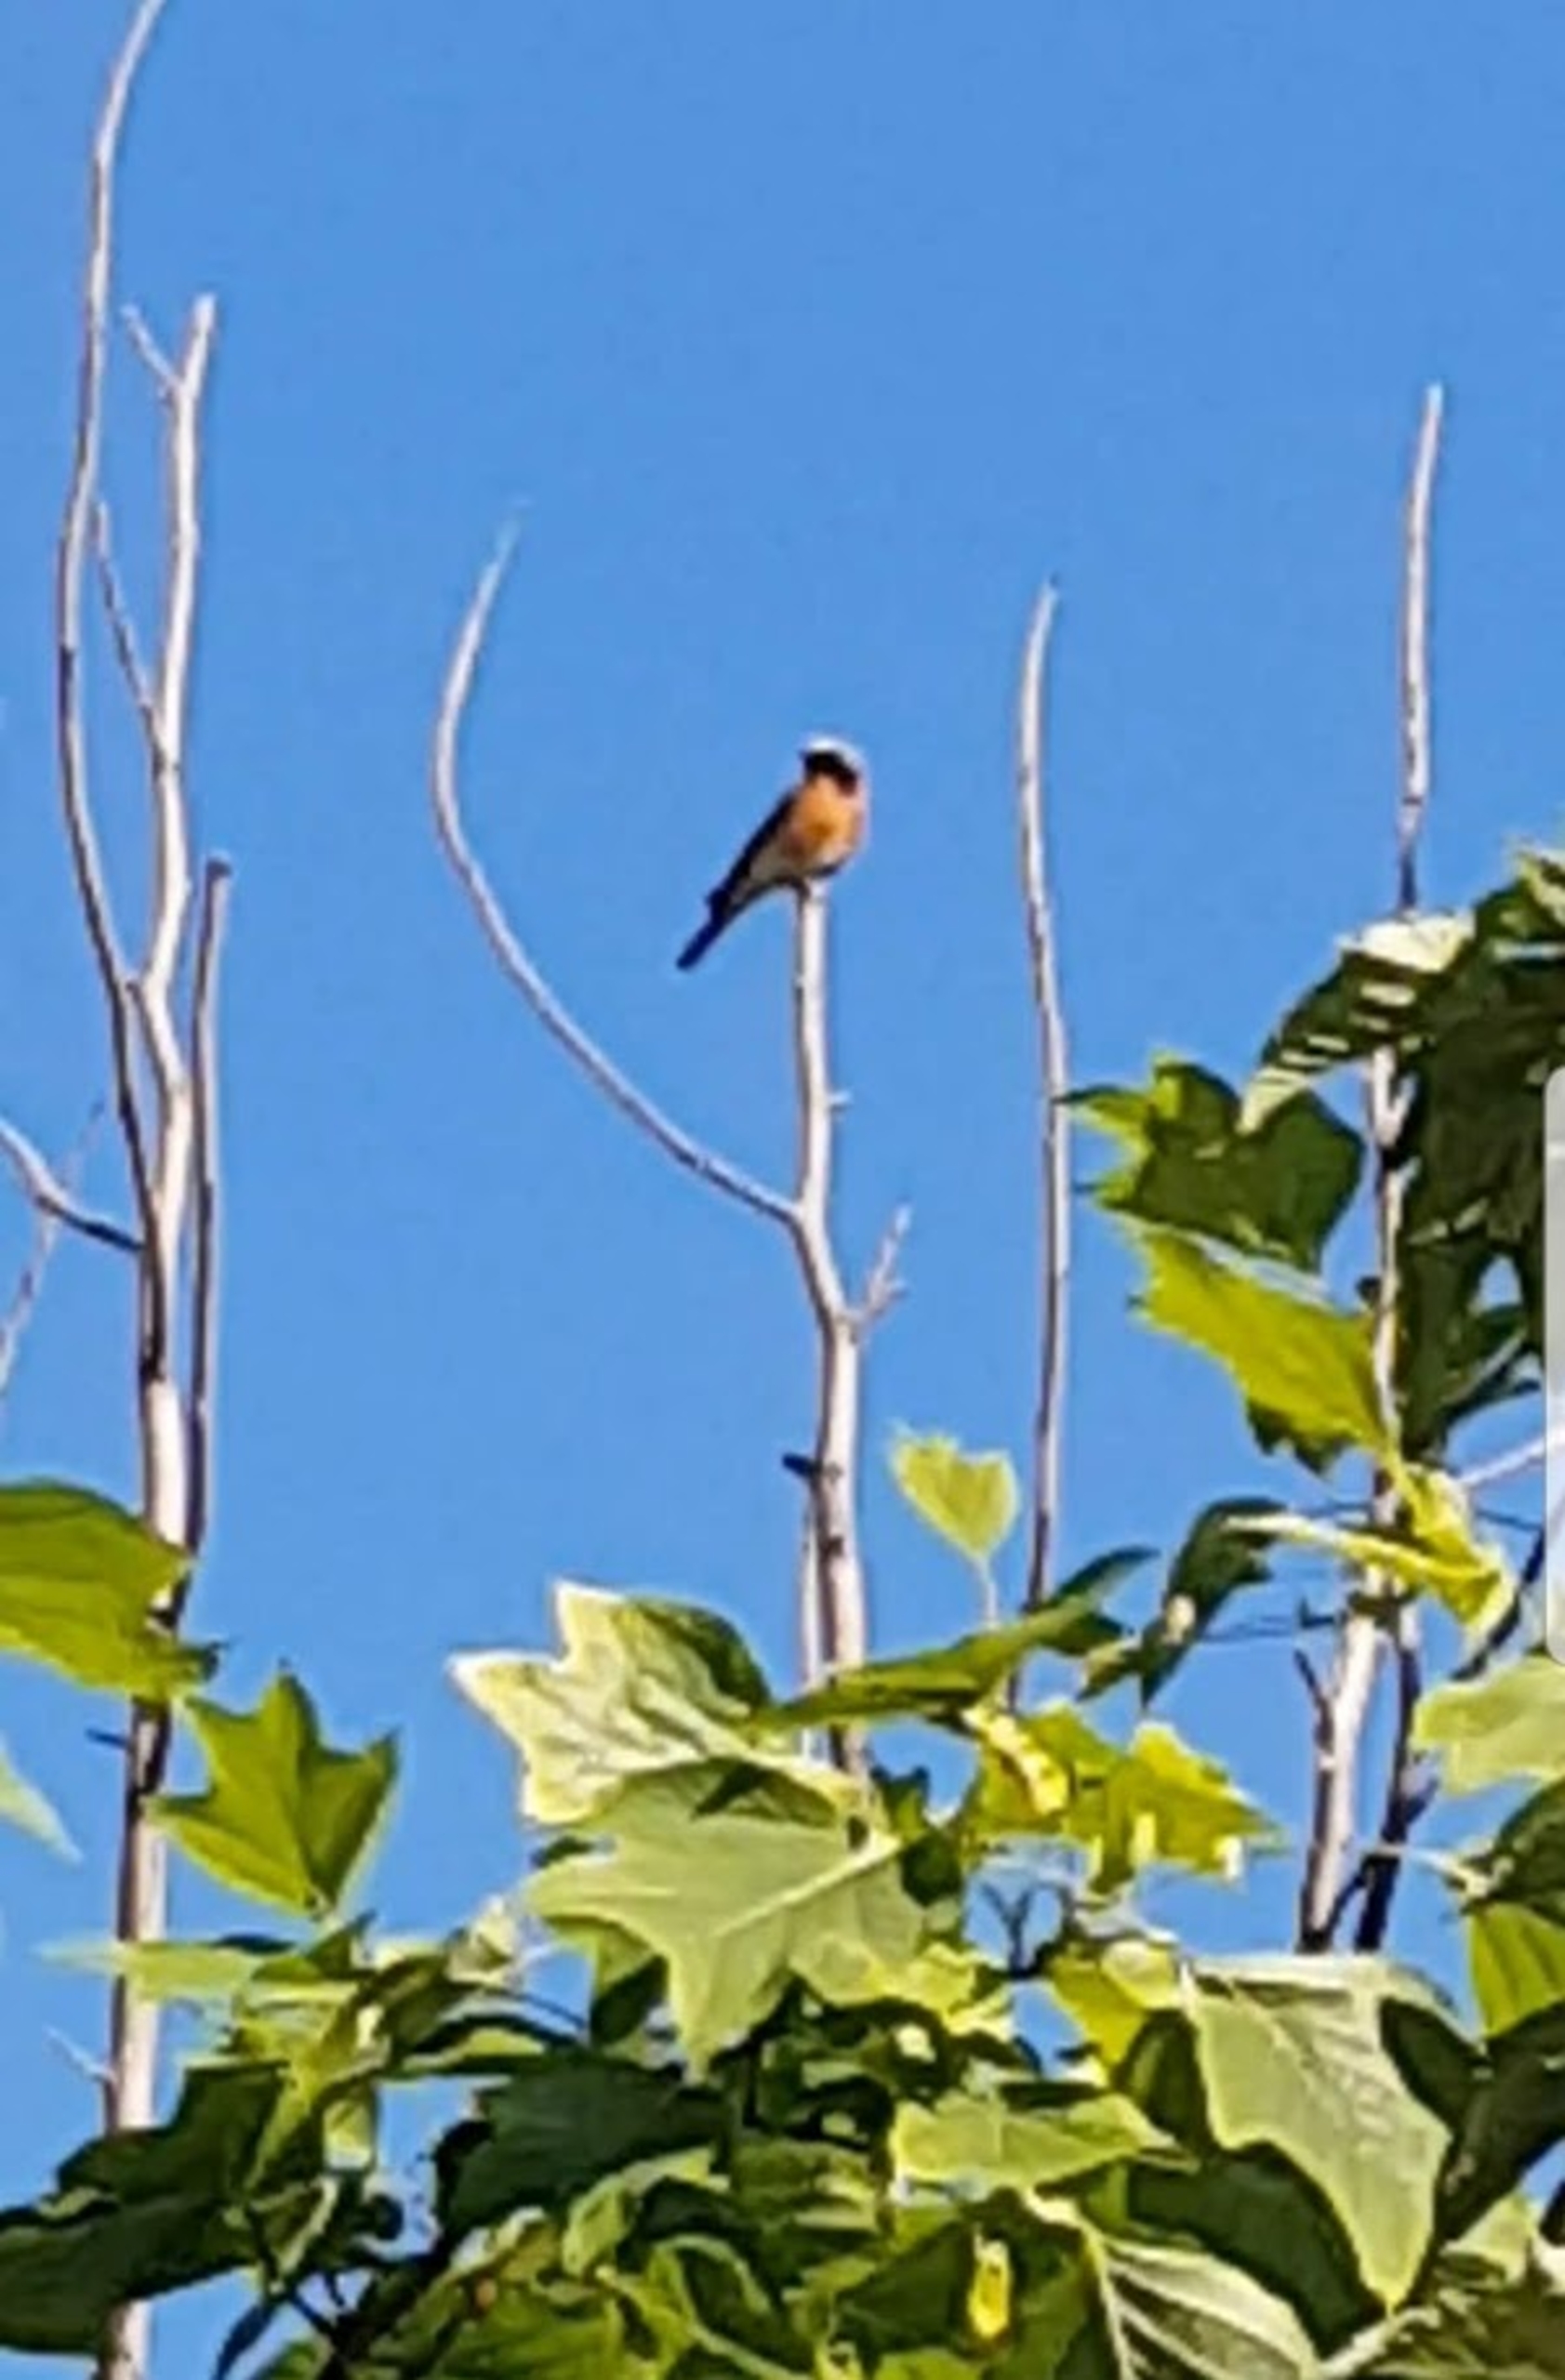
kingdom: Animalia
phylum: Chordata
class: Aves
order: Passeriformes
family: Muscicapidae
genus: Phoenicurus
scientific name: Phoenicurus phoenicurus
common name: Rødstjert
